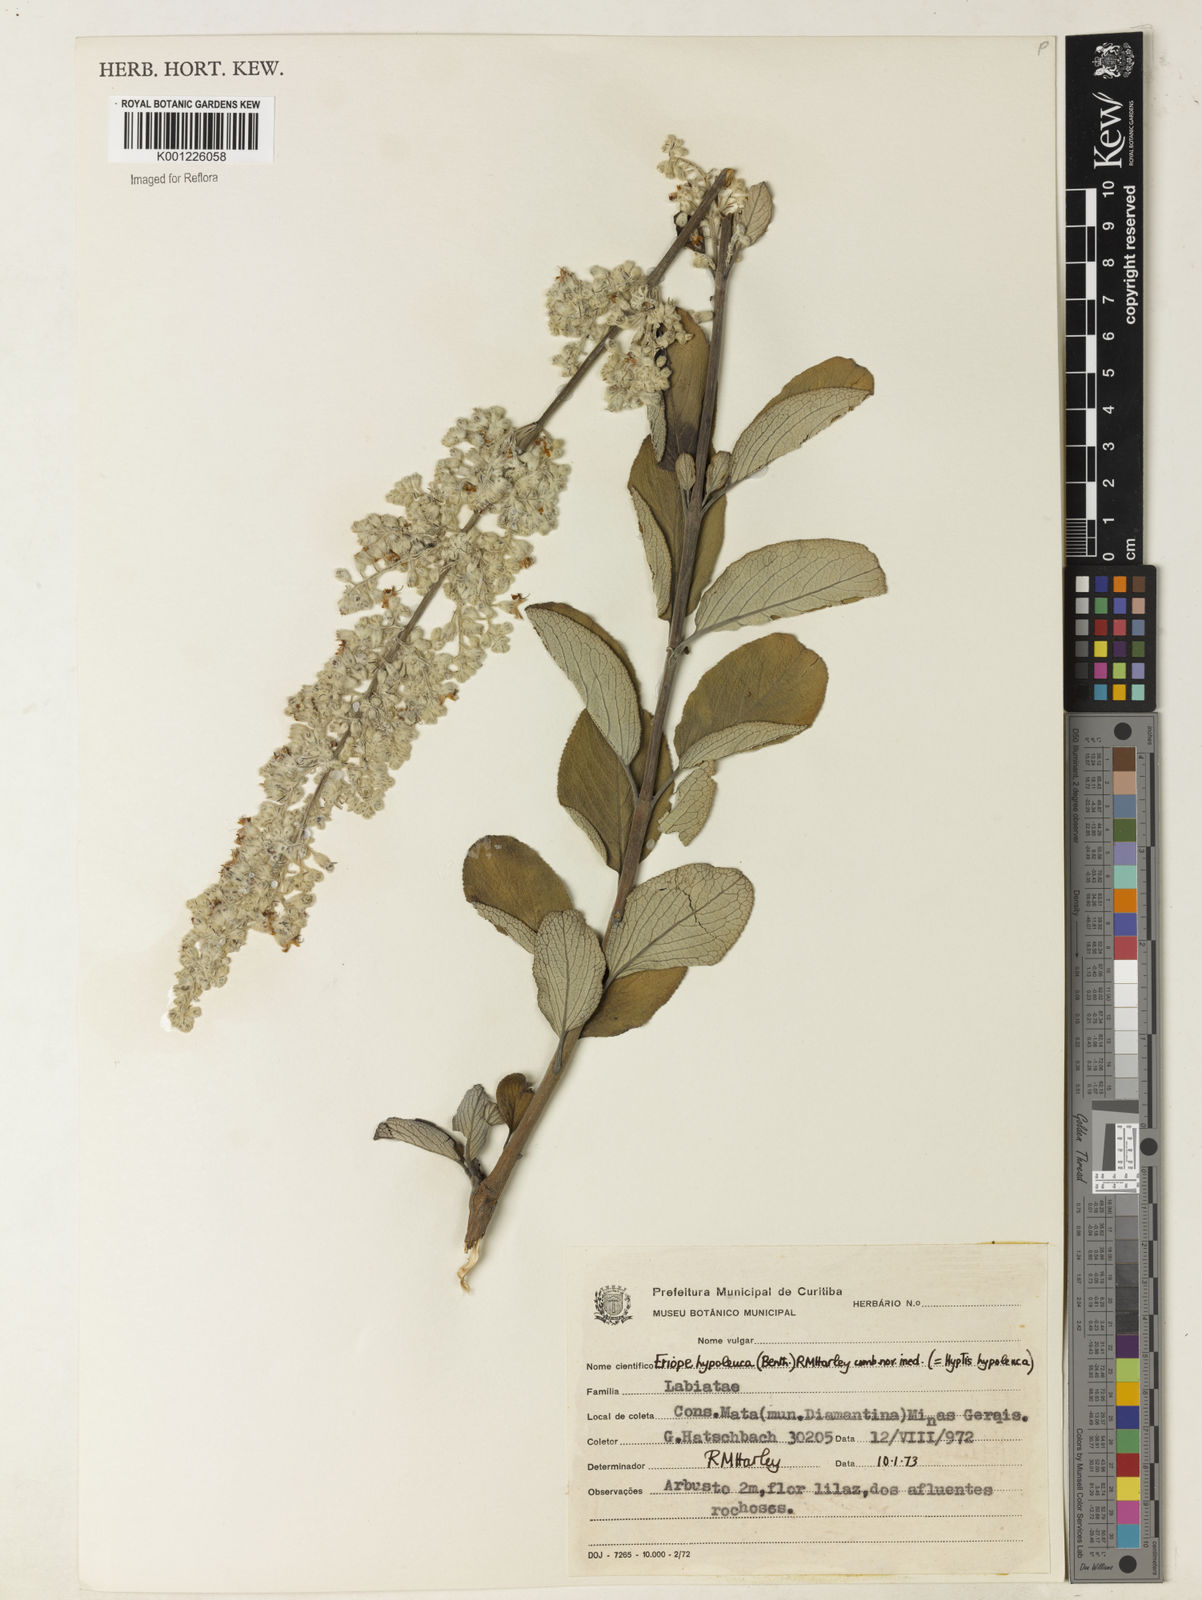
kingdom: Plantae
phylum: Tracheophyta
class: Magnoliopsida
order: Lamiales
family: Lamiaceae
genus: Eriope
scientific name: Eriope hypoleuca
